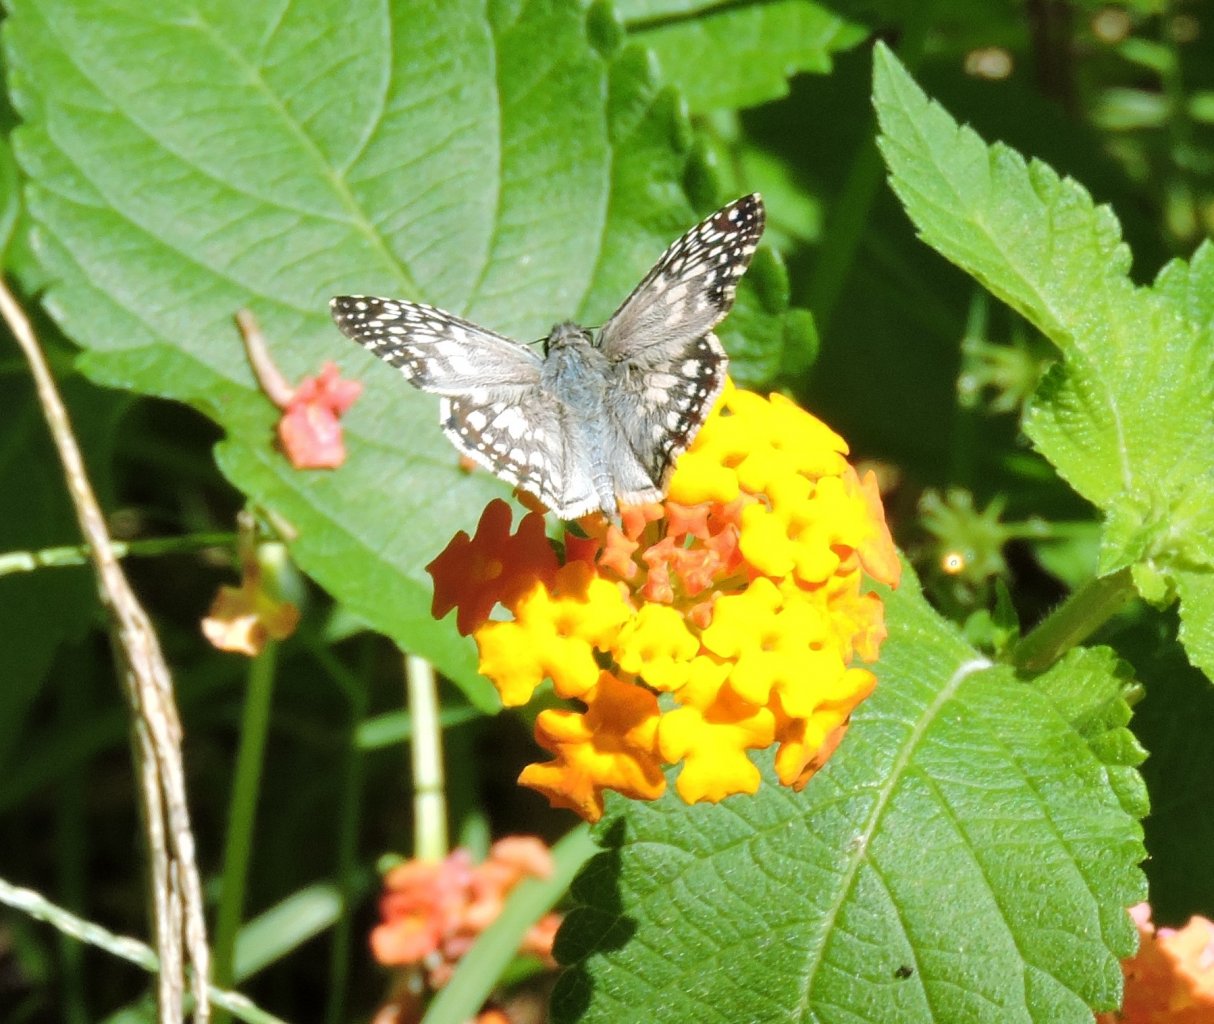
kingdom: Animalia
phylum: Arthropoda
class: Insecta
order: Lepidoptera
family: Hesperiidae
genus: Pyrgus
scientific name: Pyrgus oileus
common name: Tropical Checkered-Skipper
